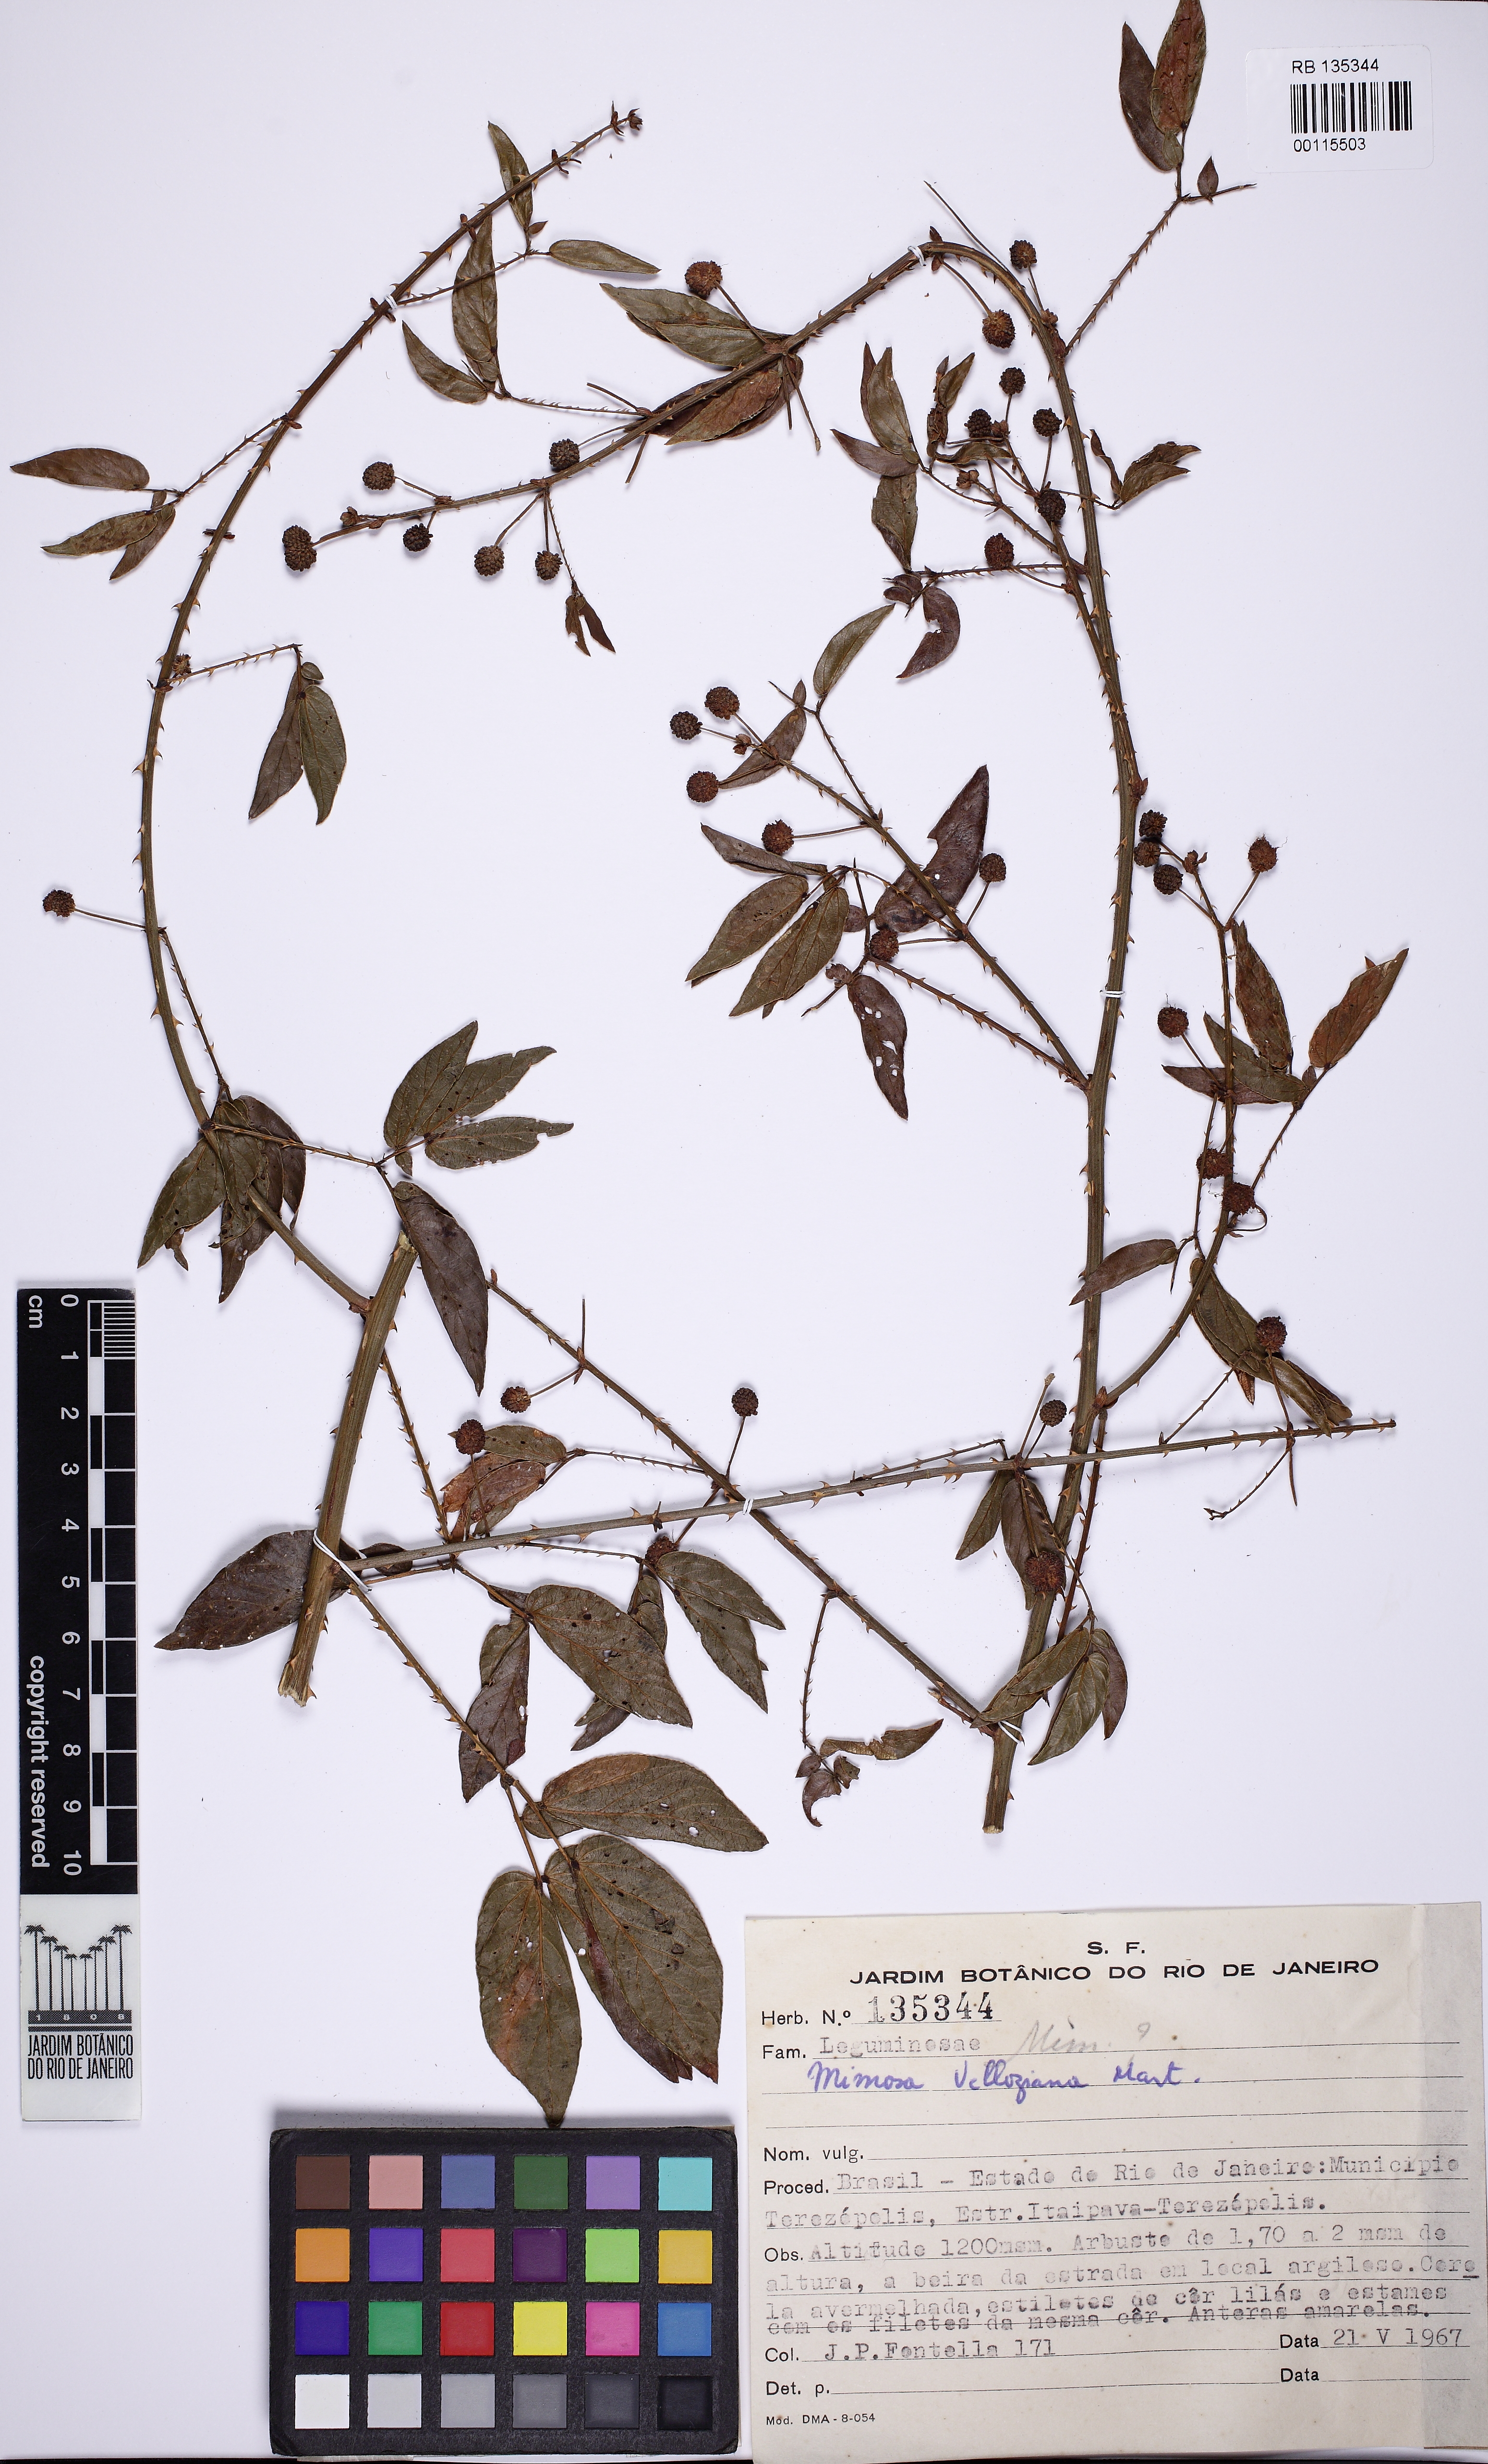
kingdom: Plantae
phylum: Tracheophyta
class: Magnoliopsida
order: Fabales
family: Fabaceae
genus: Mimosa
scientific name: Mimosa velloziana
